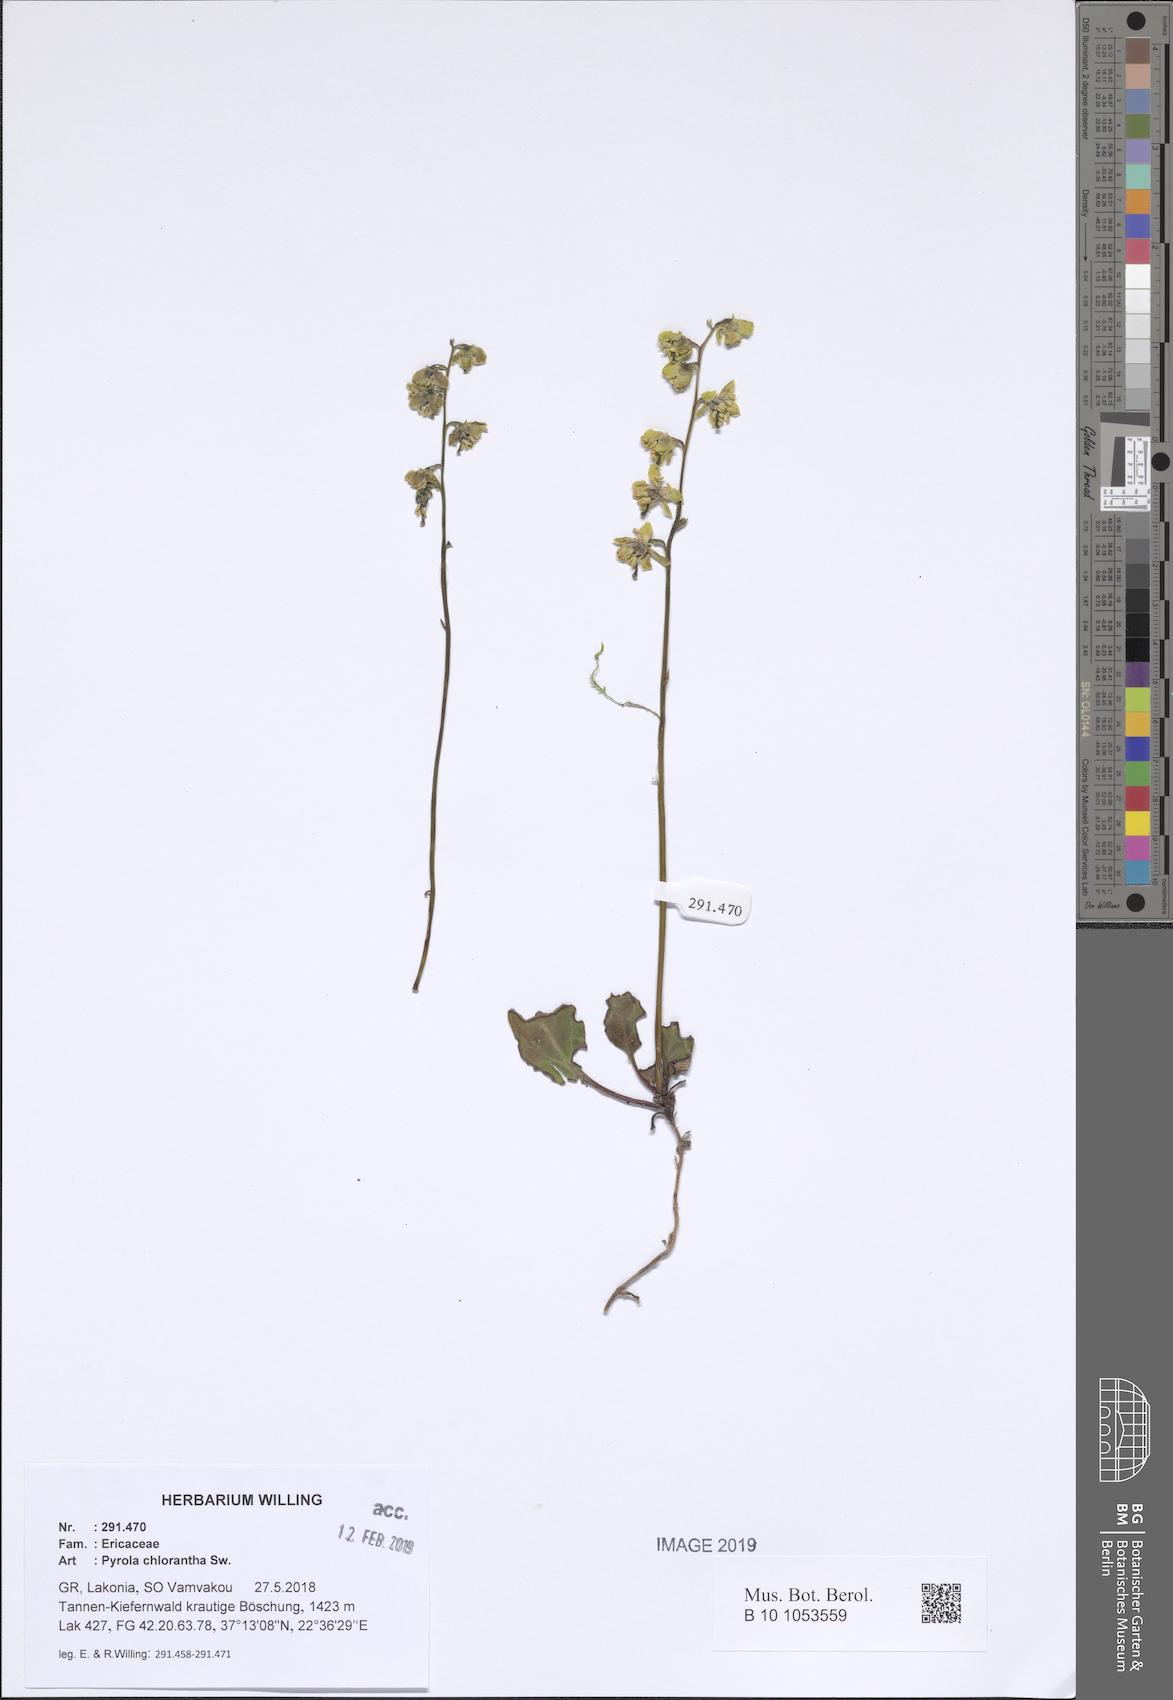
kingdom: Plantae
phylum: Tracheophyta
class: Magnoliopsida
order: Ericales
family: Ericaceae
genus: Pyrola
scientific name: Pyrola chlorantha
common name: Green wintergreen
